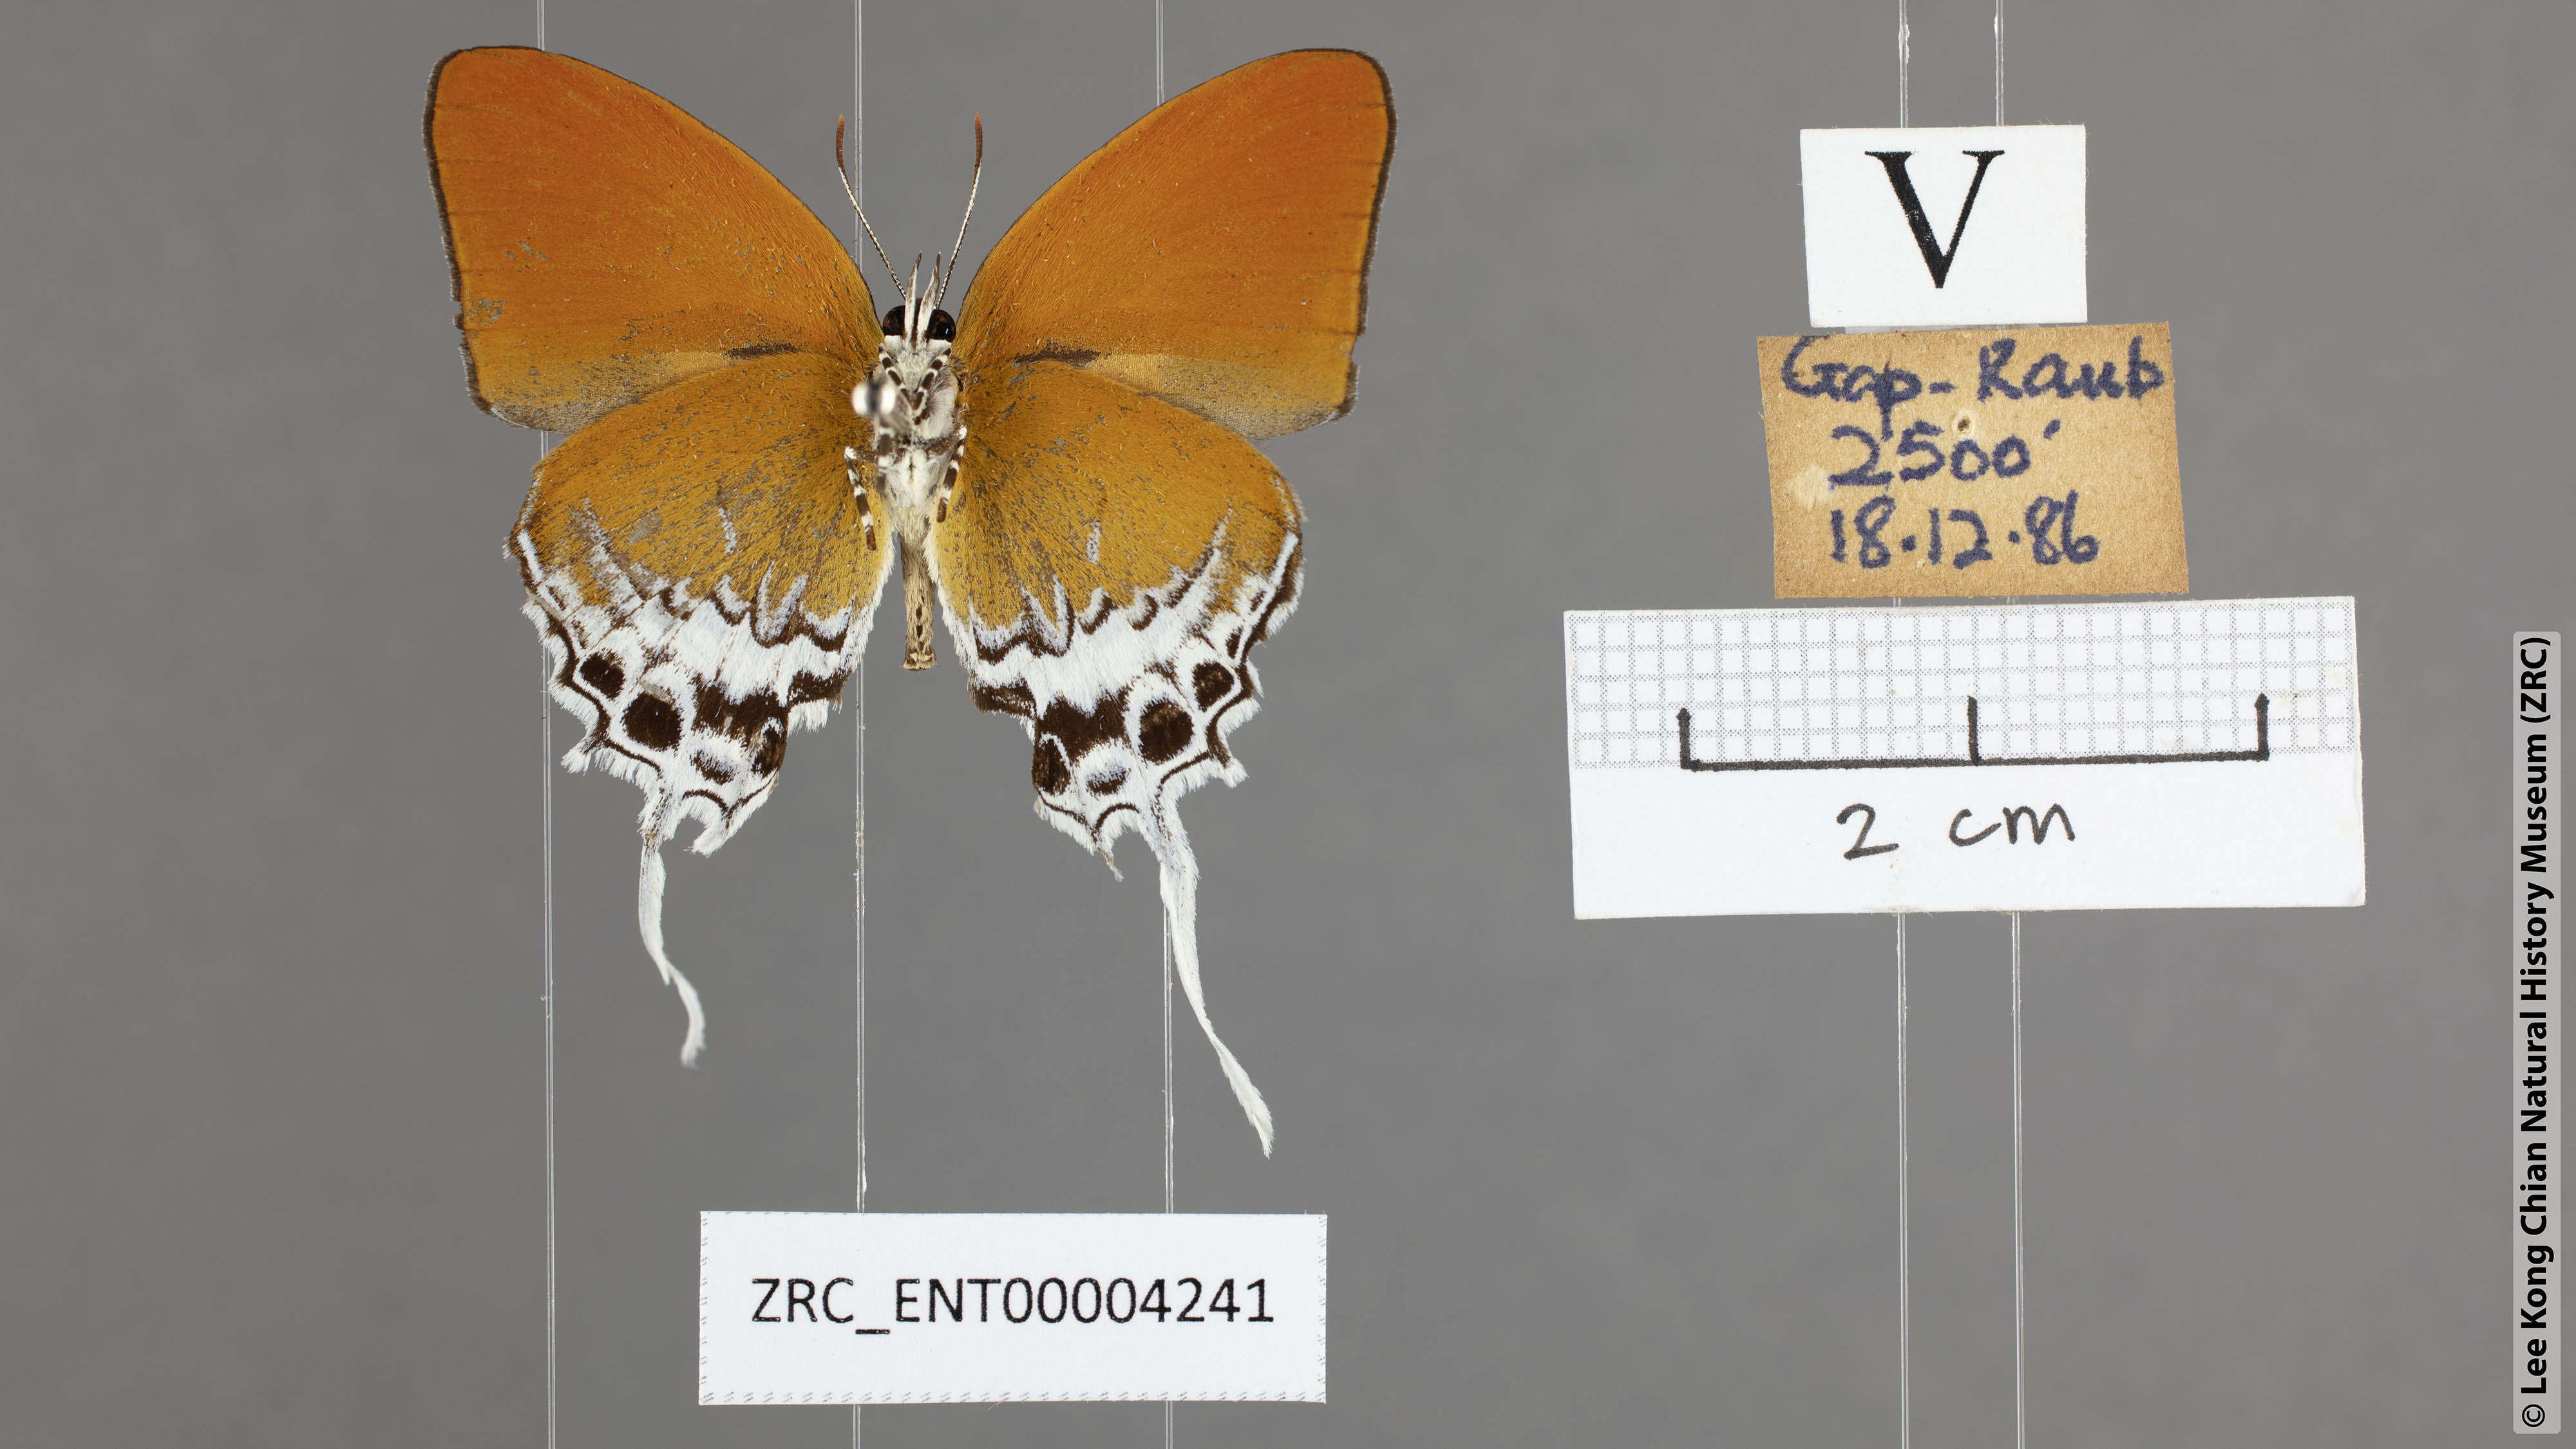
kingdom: Animalia
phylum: Arthropoda
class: Insecta
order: Lepidoptera
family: Lycaenidae
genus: Eooxylides
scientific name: Eooxylides tharis
